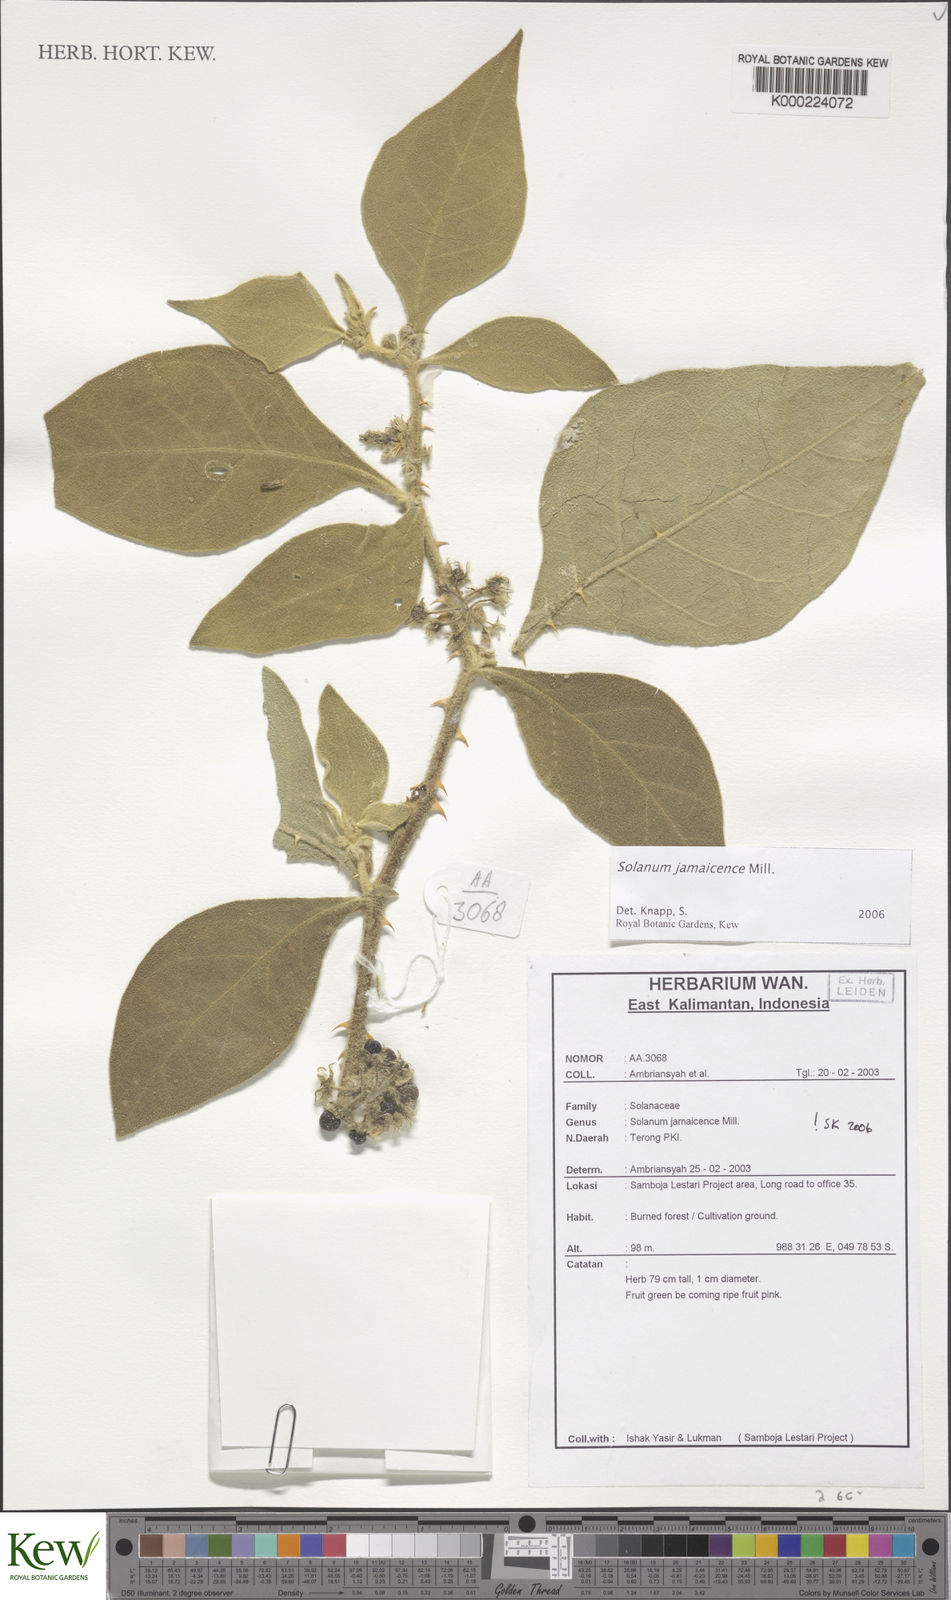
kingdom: Plantae
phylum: Tracheophyta
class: Magnoliopsida
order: Solanales
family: Solanaceae
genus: Solanum
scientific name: Solanum
